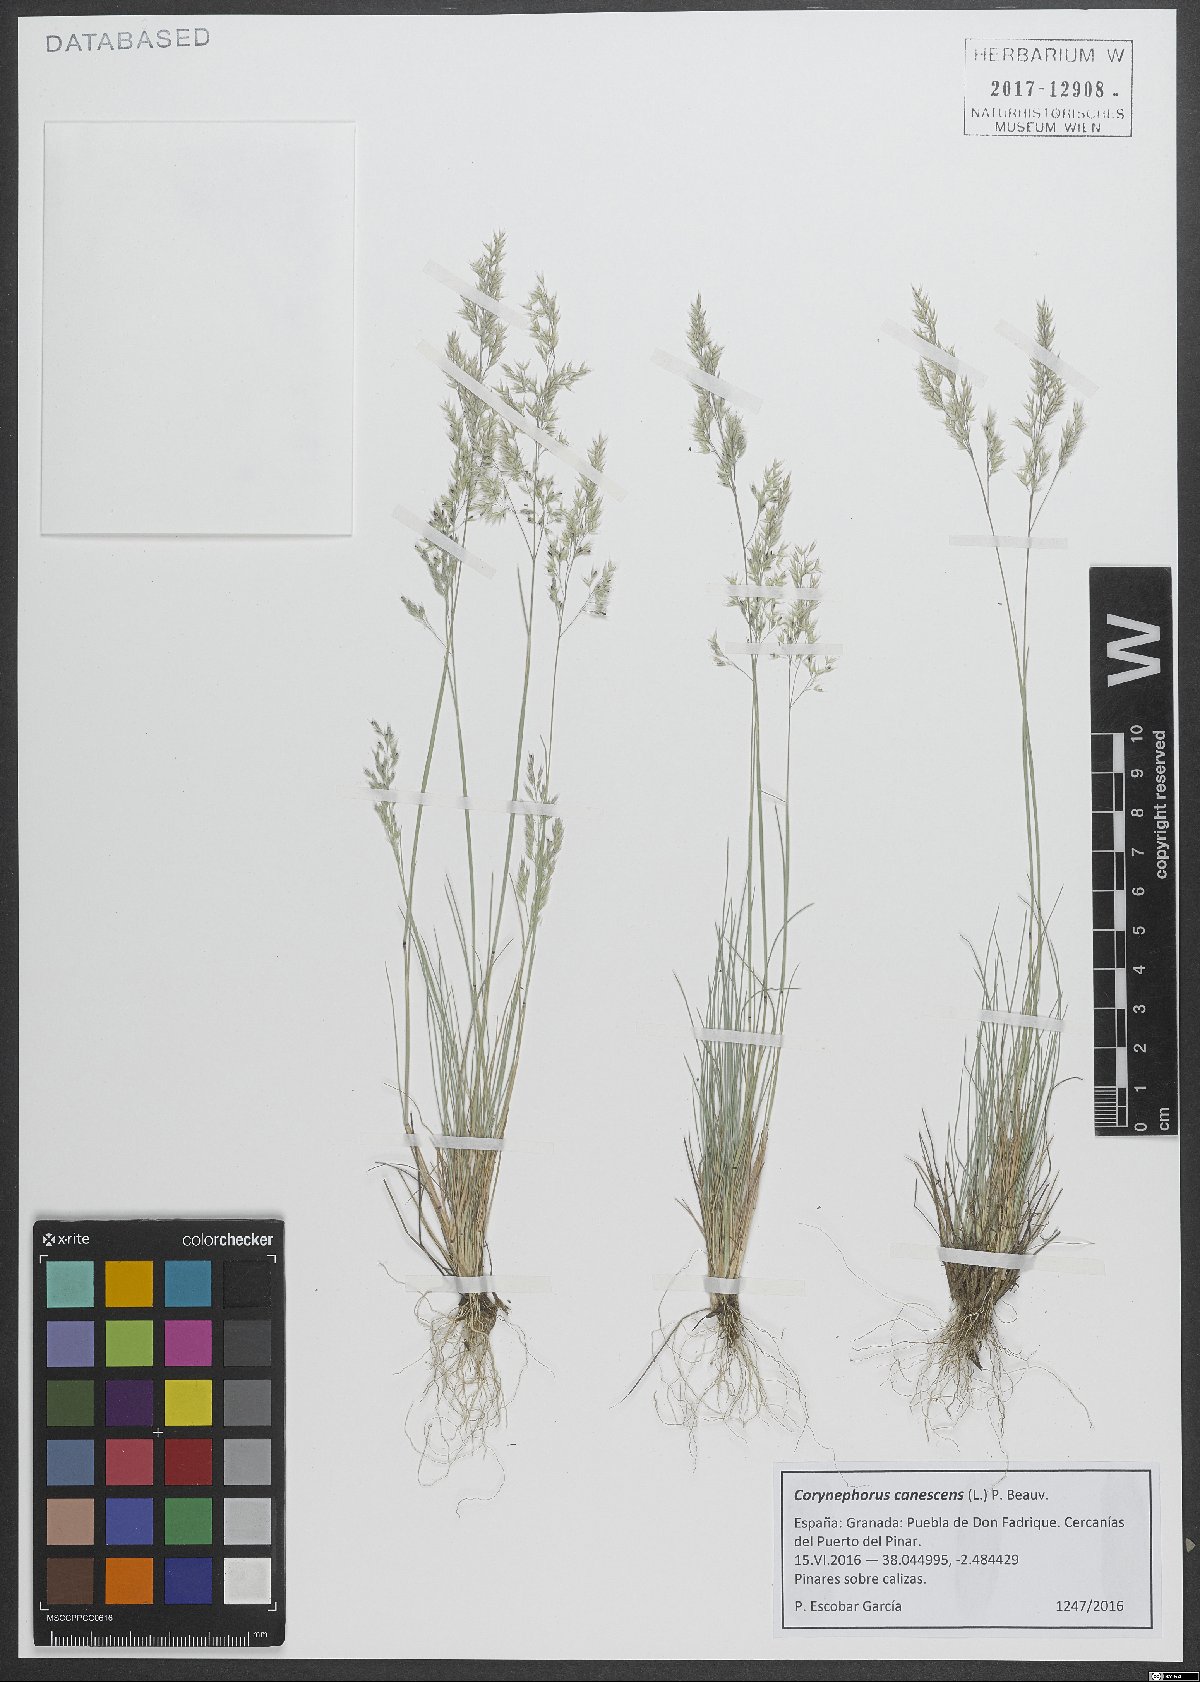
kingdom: Plantae
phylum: Tracheophyta
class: Liliopsida
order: Poales
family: Poaceae
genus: Corynephorus
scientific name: Corynephorus canescens
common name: Grey hair-grass
